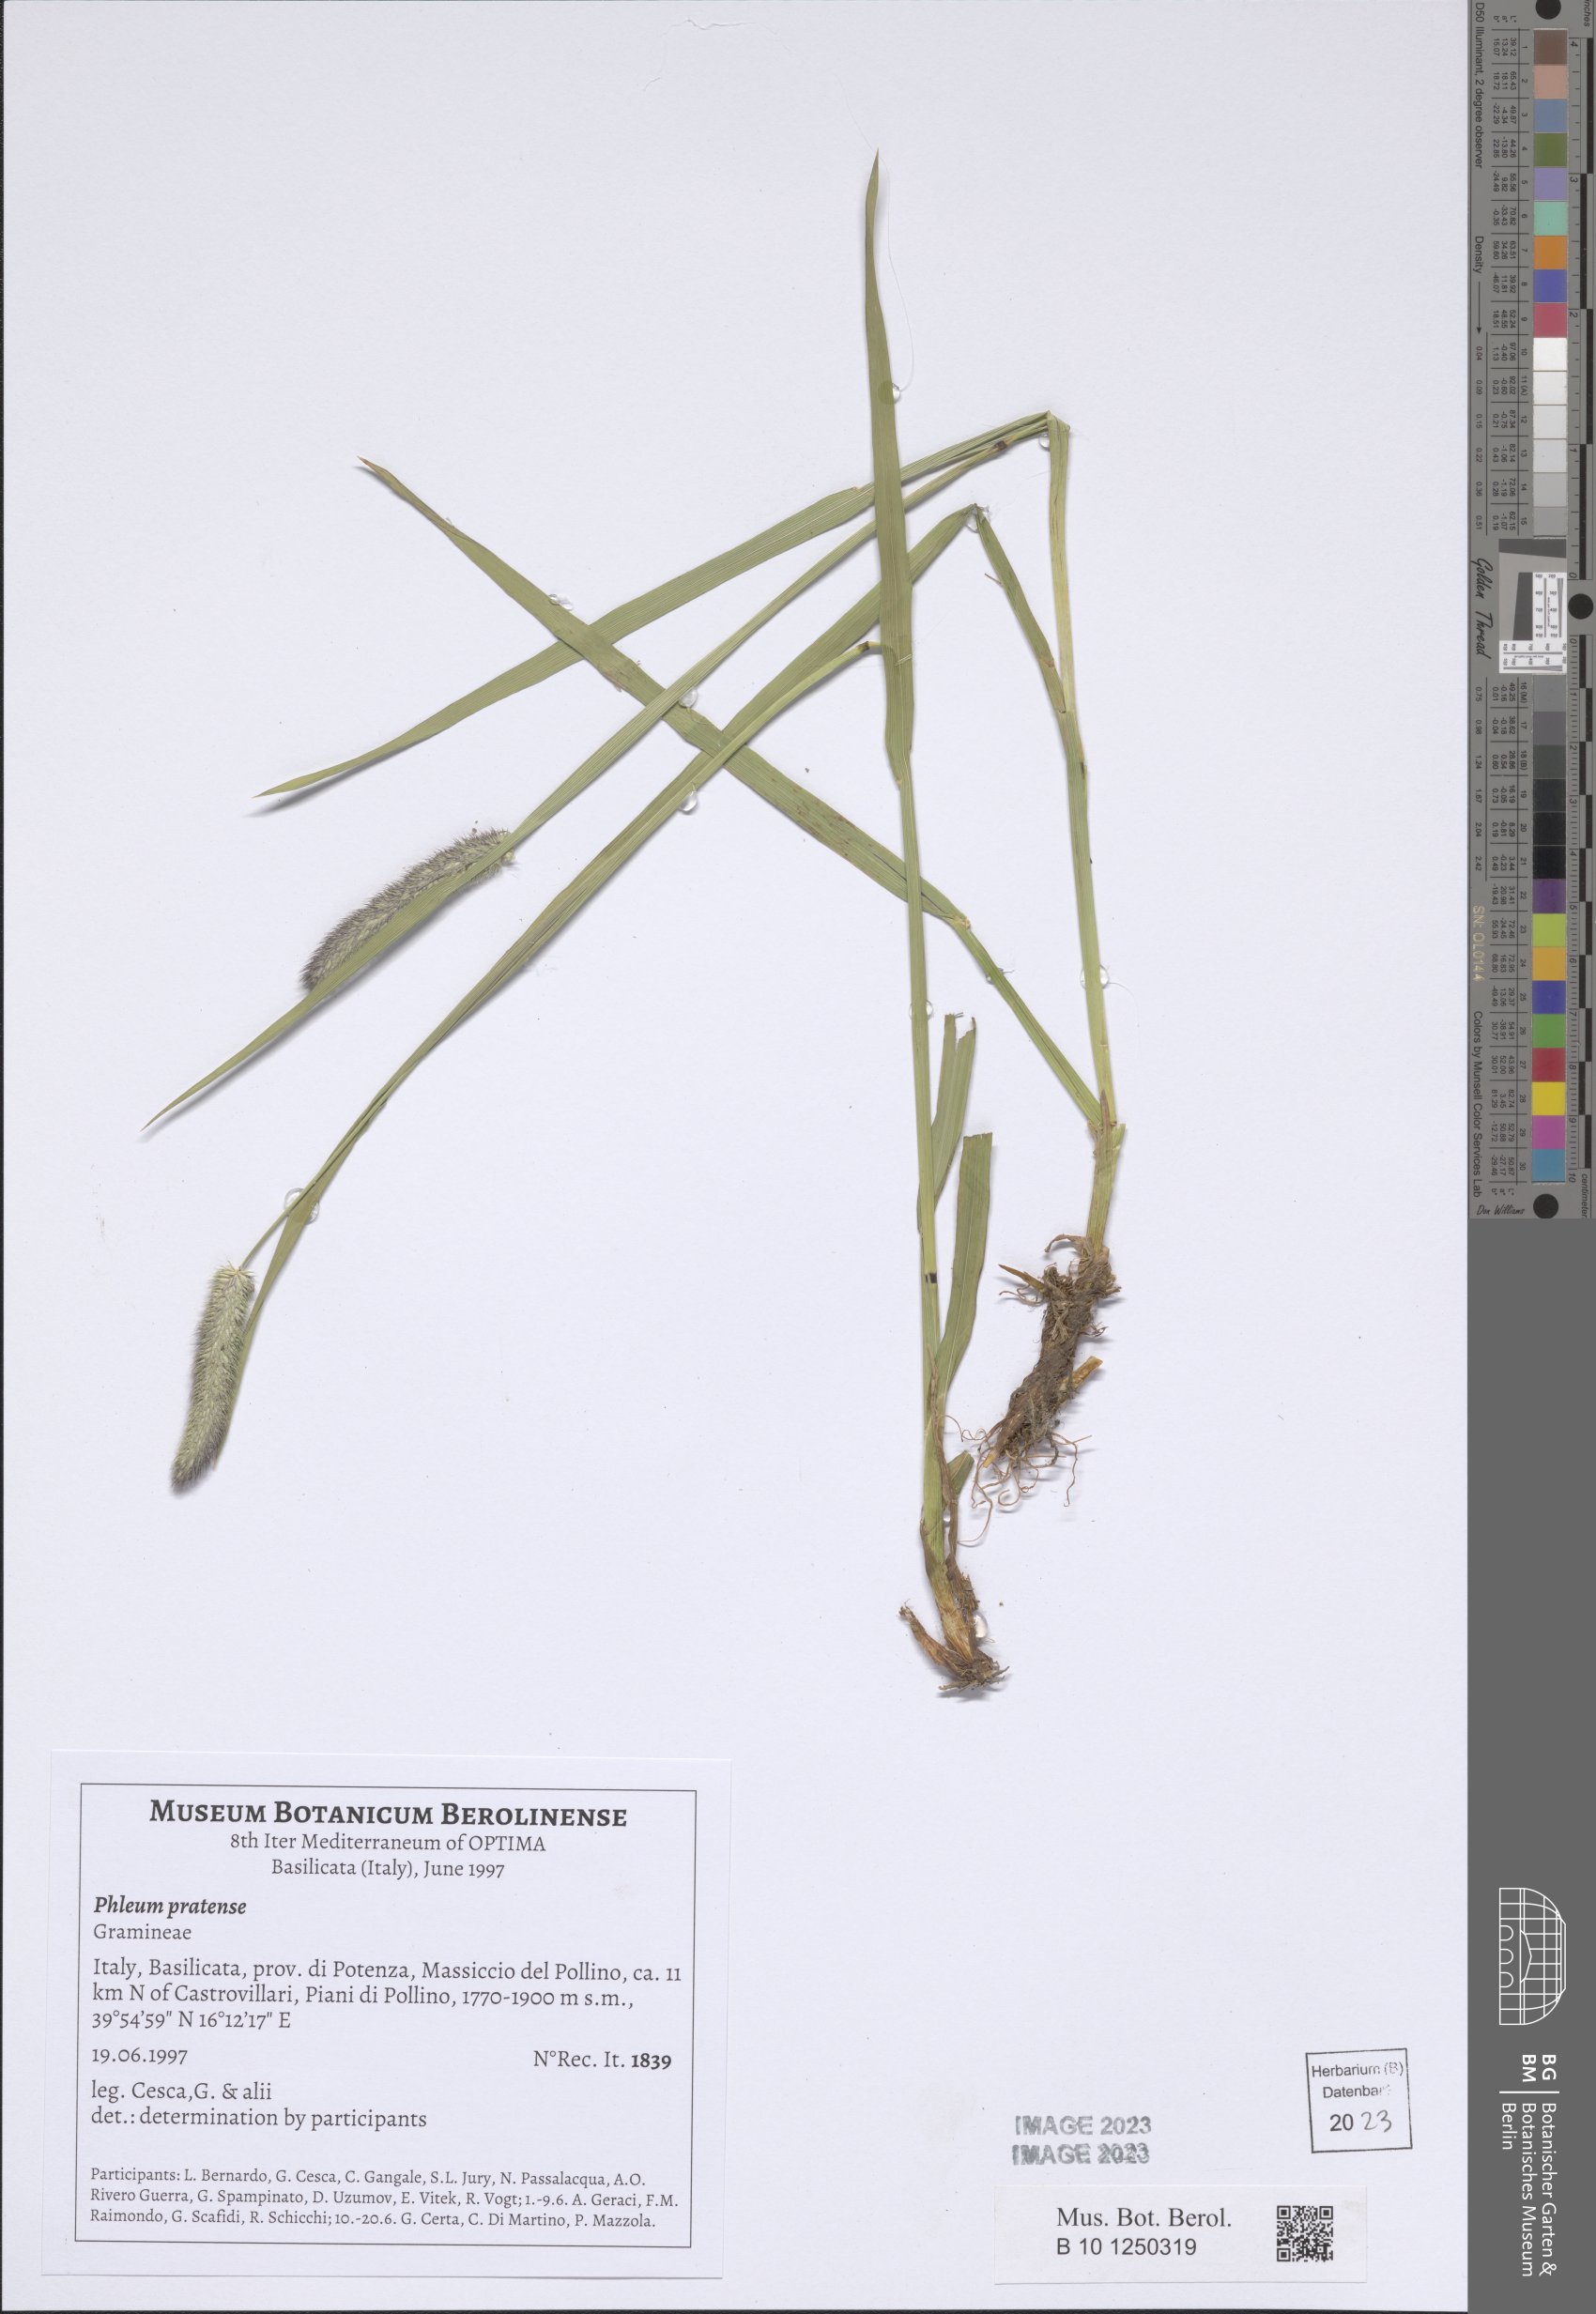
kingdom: Plantae
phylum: Tracheophyta
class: Liliopsida
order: Poales
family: Poaceae
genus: Phleum
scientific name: Phleum pratense
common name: Timothy grass
